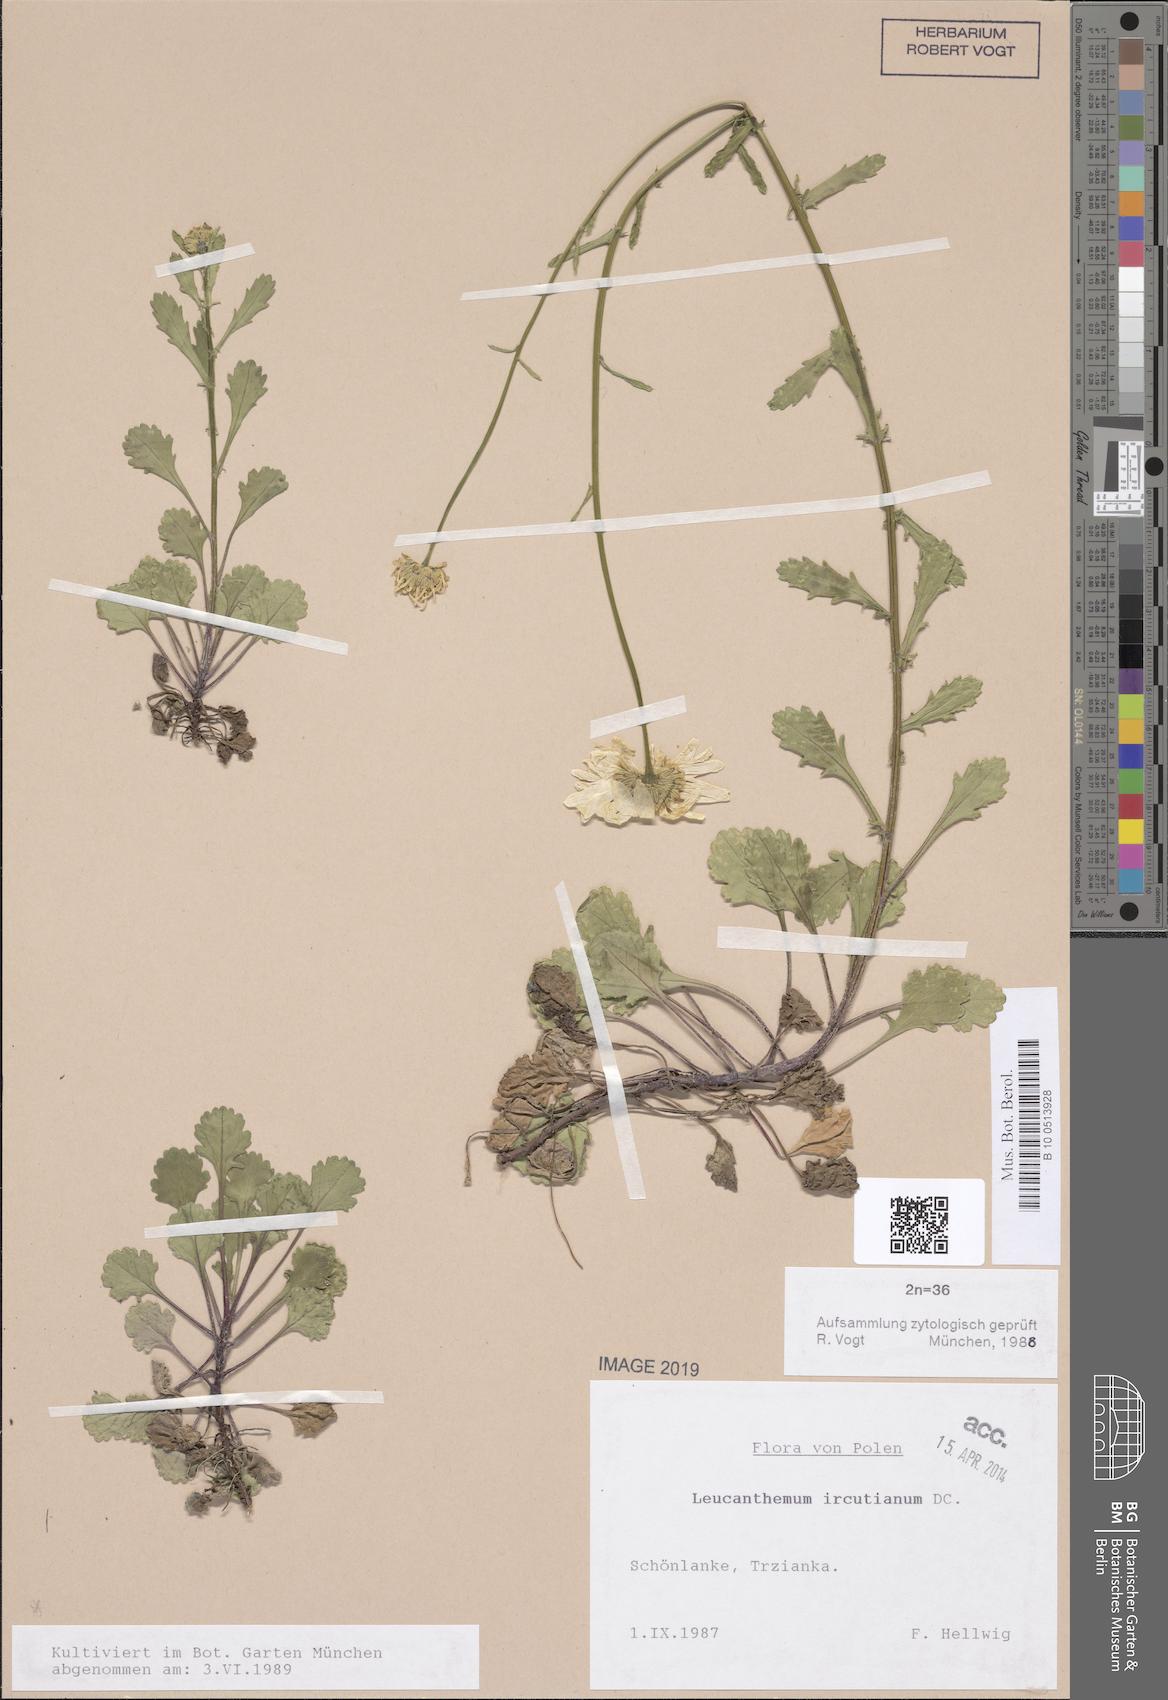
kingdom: Plantae
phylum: Tracheophyta
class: Magnoliopsida
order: Asterales
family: Asteraceae
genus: Leucanthemum
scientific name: Leucanthemum ircutianum
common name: Daisy
